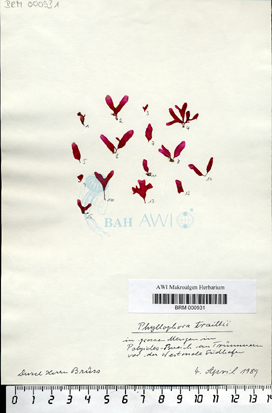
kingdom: Plantae
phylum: Rhodophyta
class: Florideophyceae
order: Gigartinales
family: Phyllophoraceae
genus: Erythrodermis
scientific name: Erythrodermis traillii
